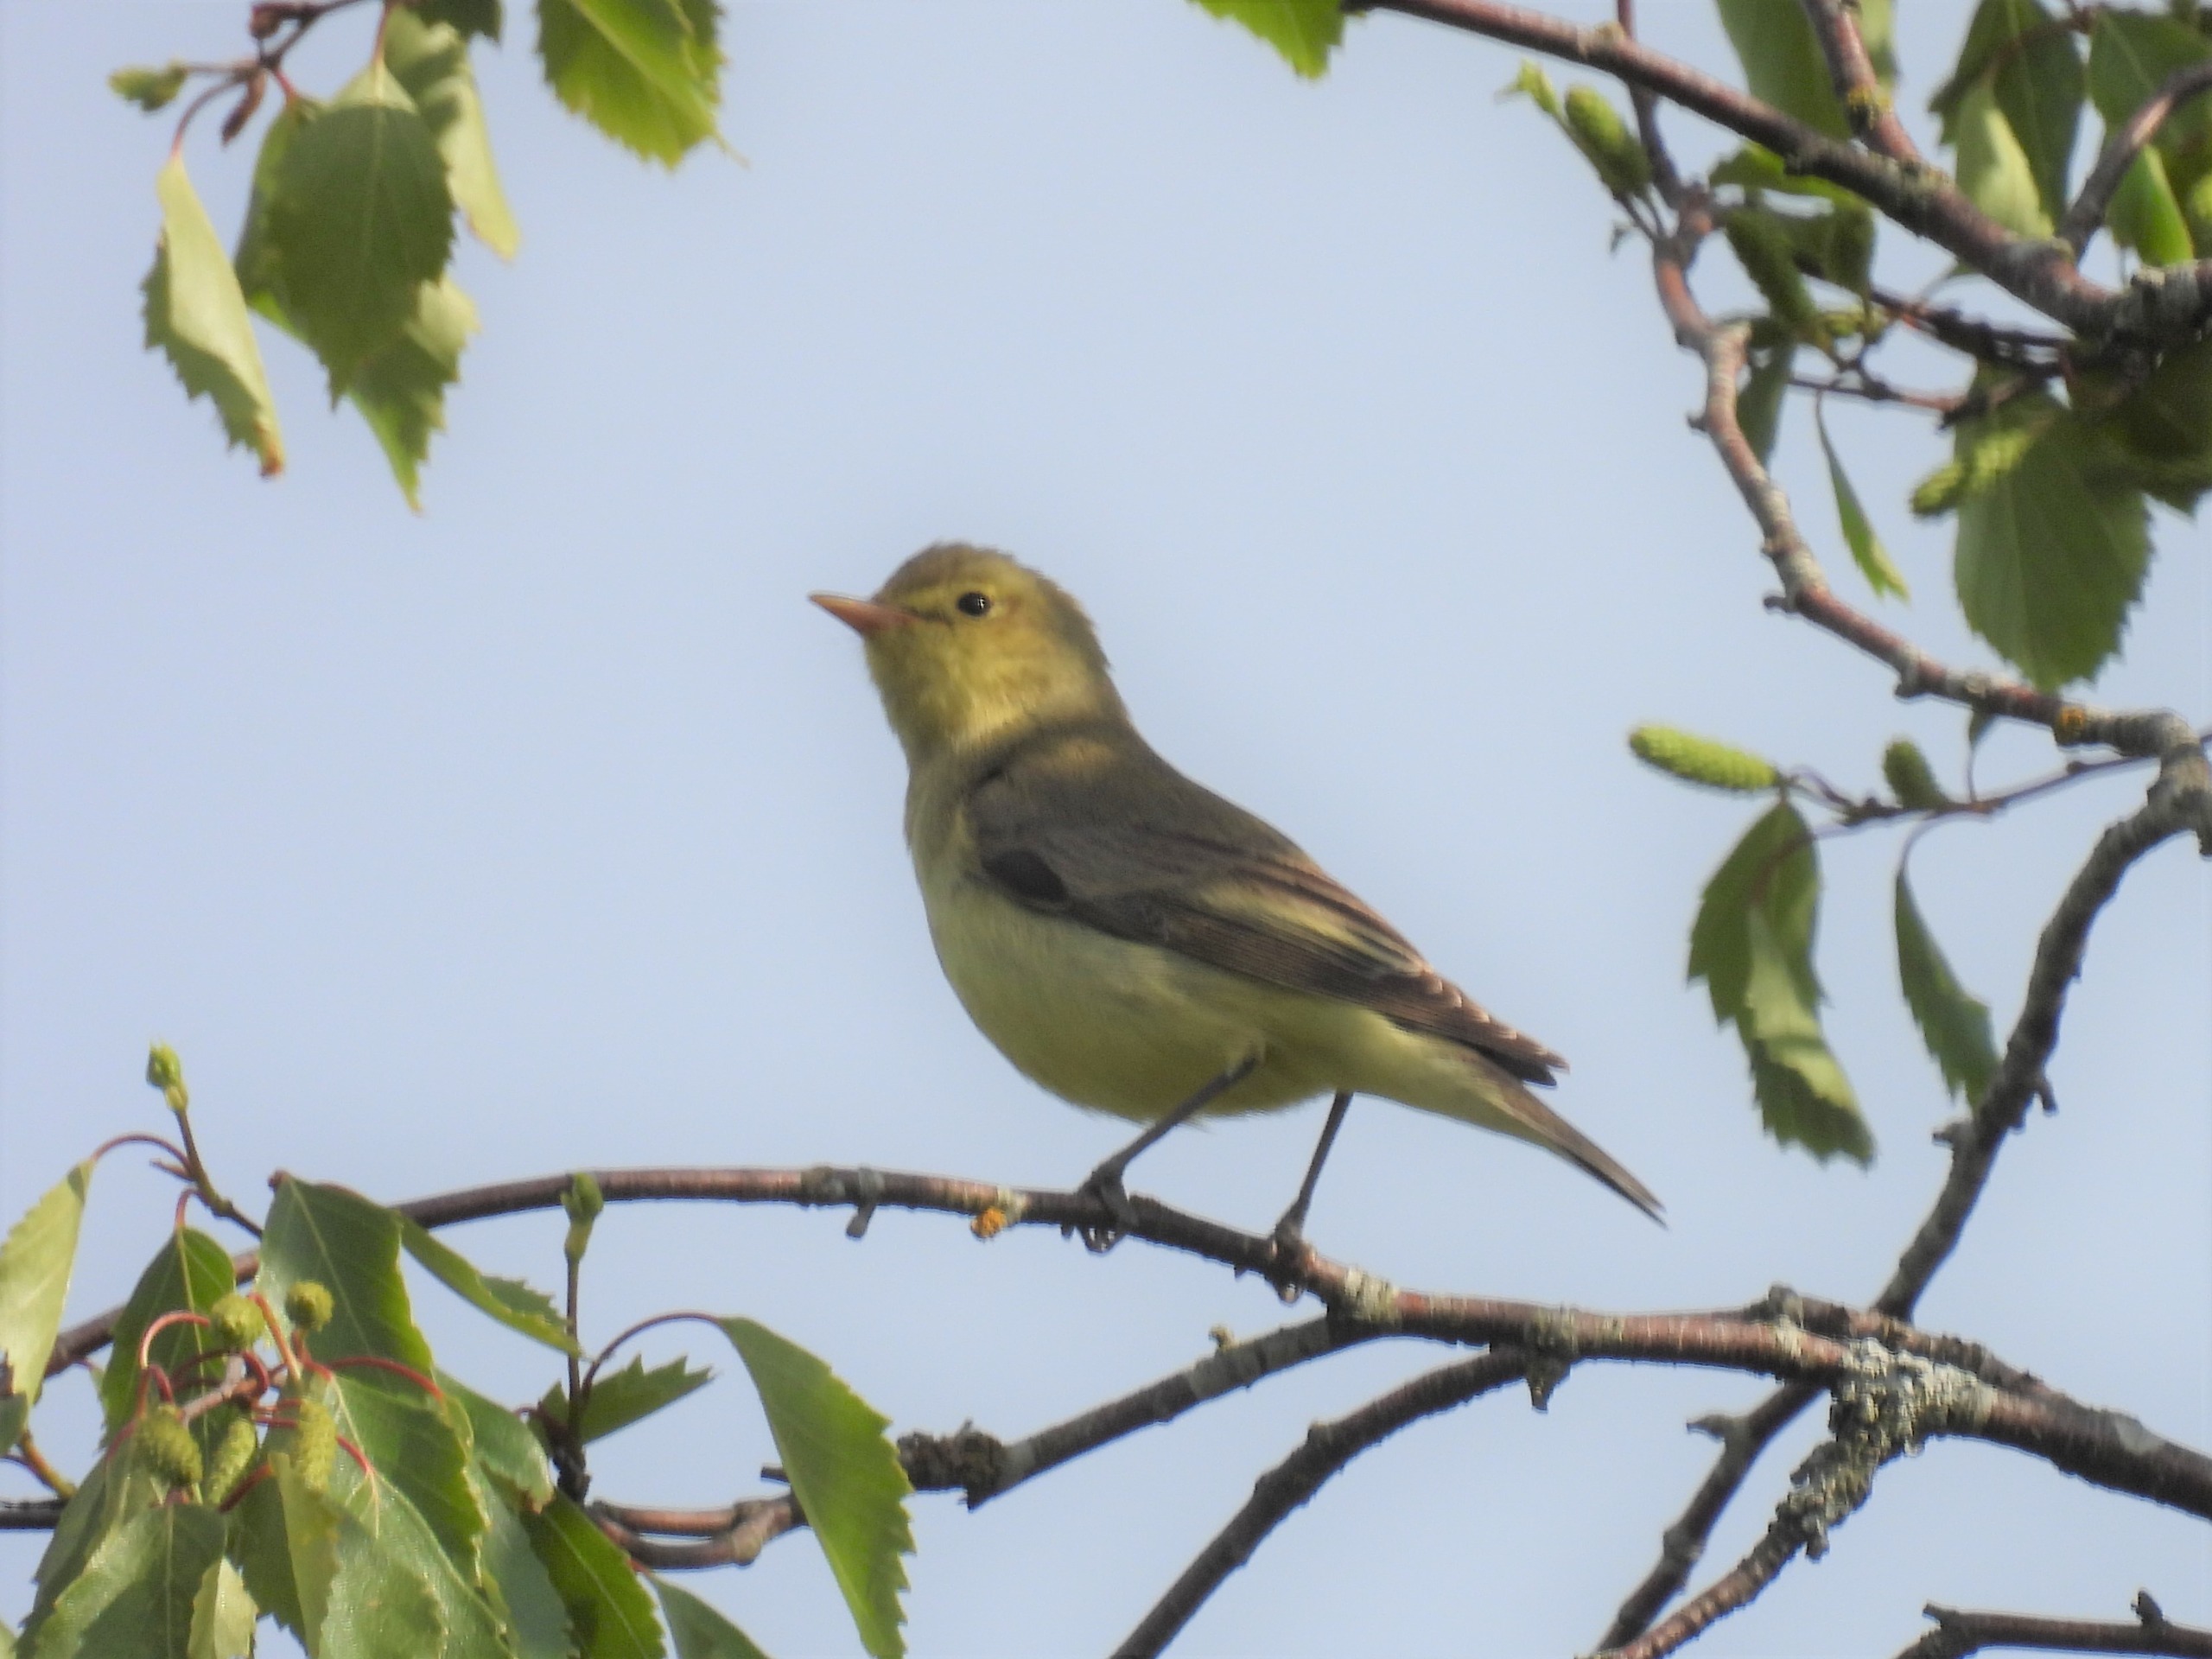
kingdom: Animalia
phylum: Chordata
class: Aves
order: Passeriformes
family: Acrocephalidae
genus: Hippolais
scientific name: Hippolais icterina
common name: Gulbug
